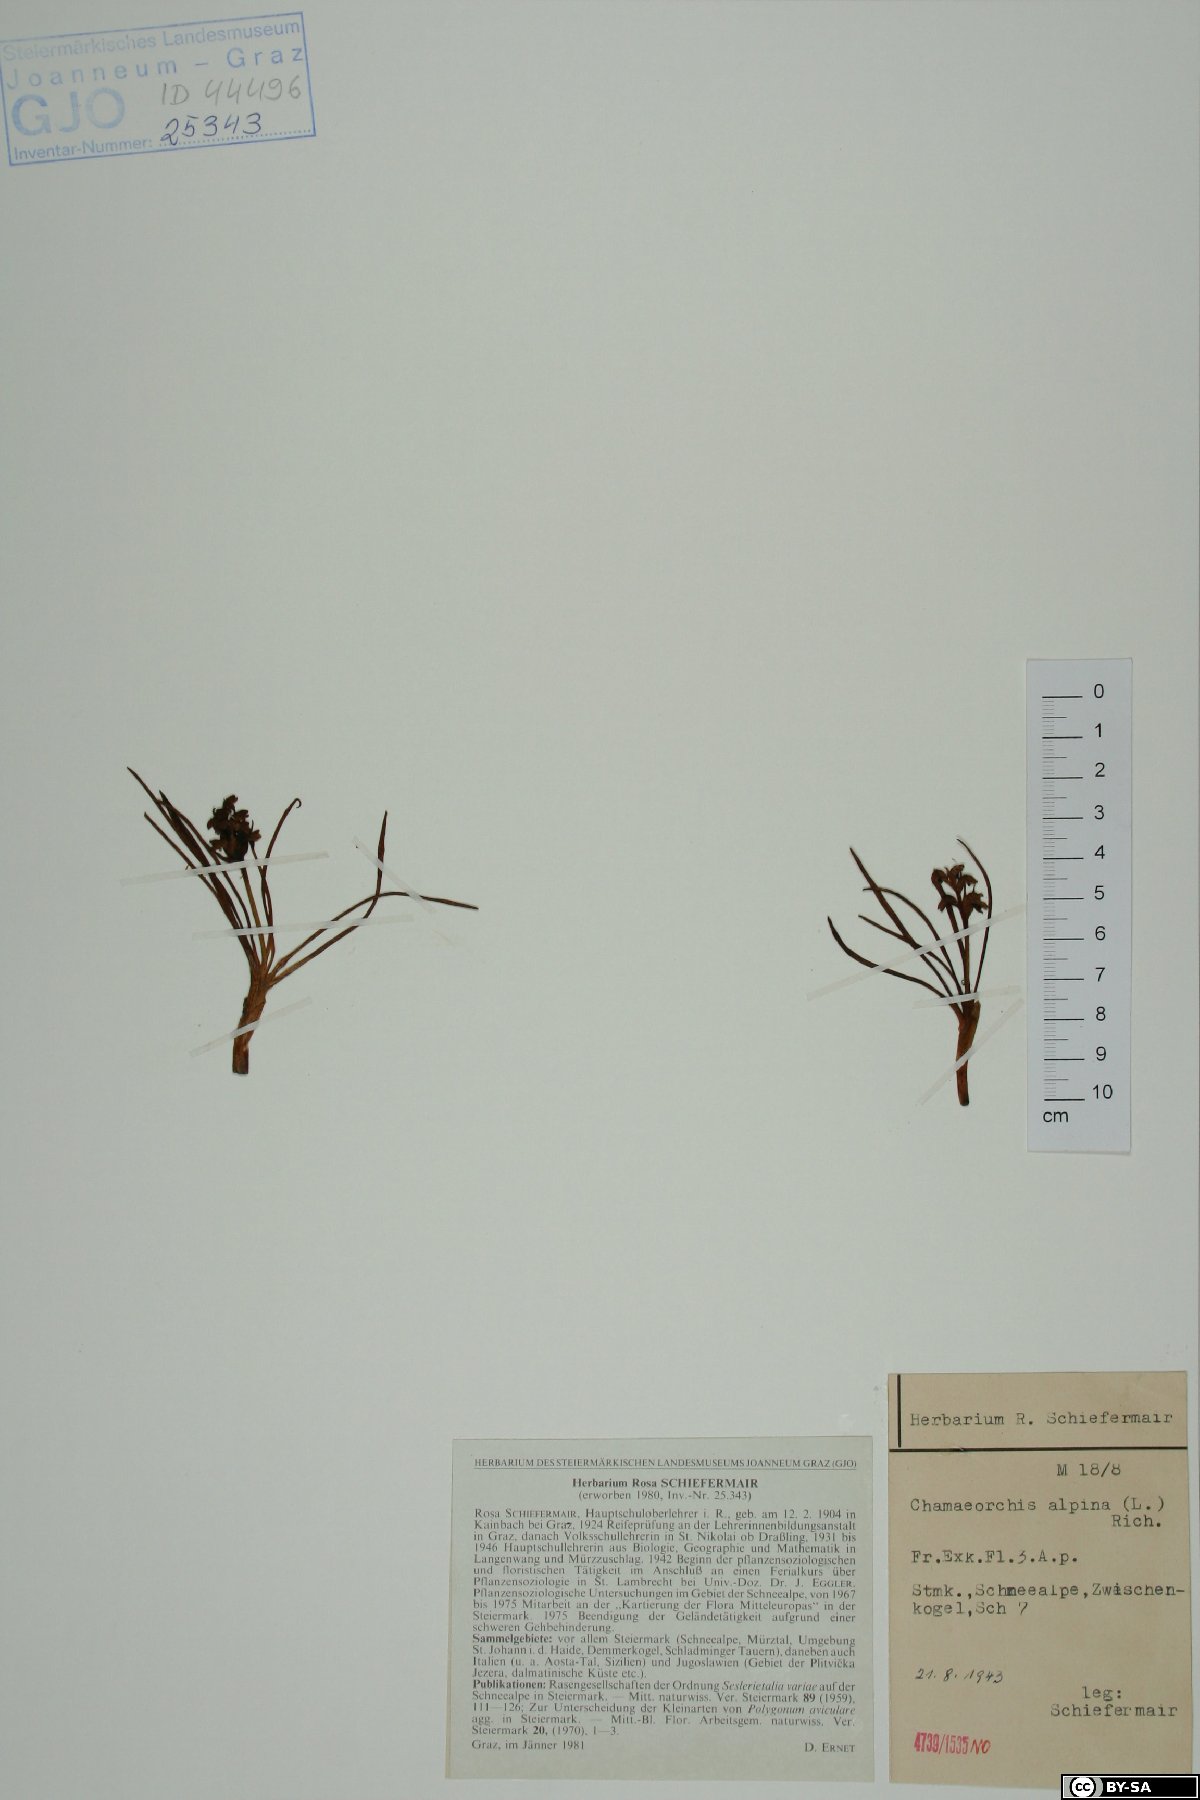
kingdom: Plantae
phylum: Tracheophyta
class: Liliopsida
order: Asparagales
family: Orchidaceae
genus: Chamorchis
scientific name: Chamorchis alpina
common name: Alpine chamorchis
